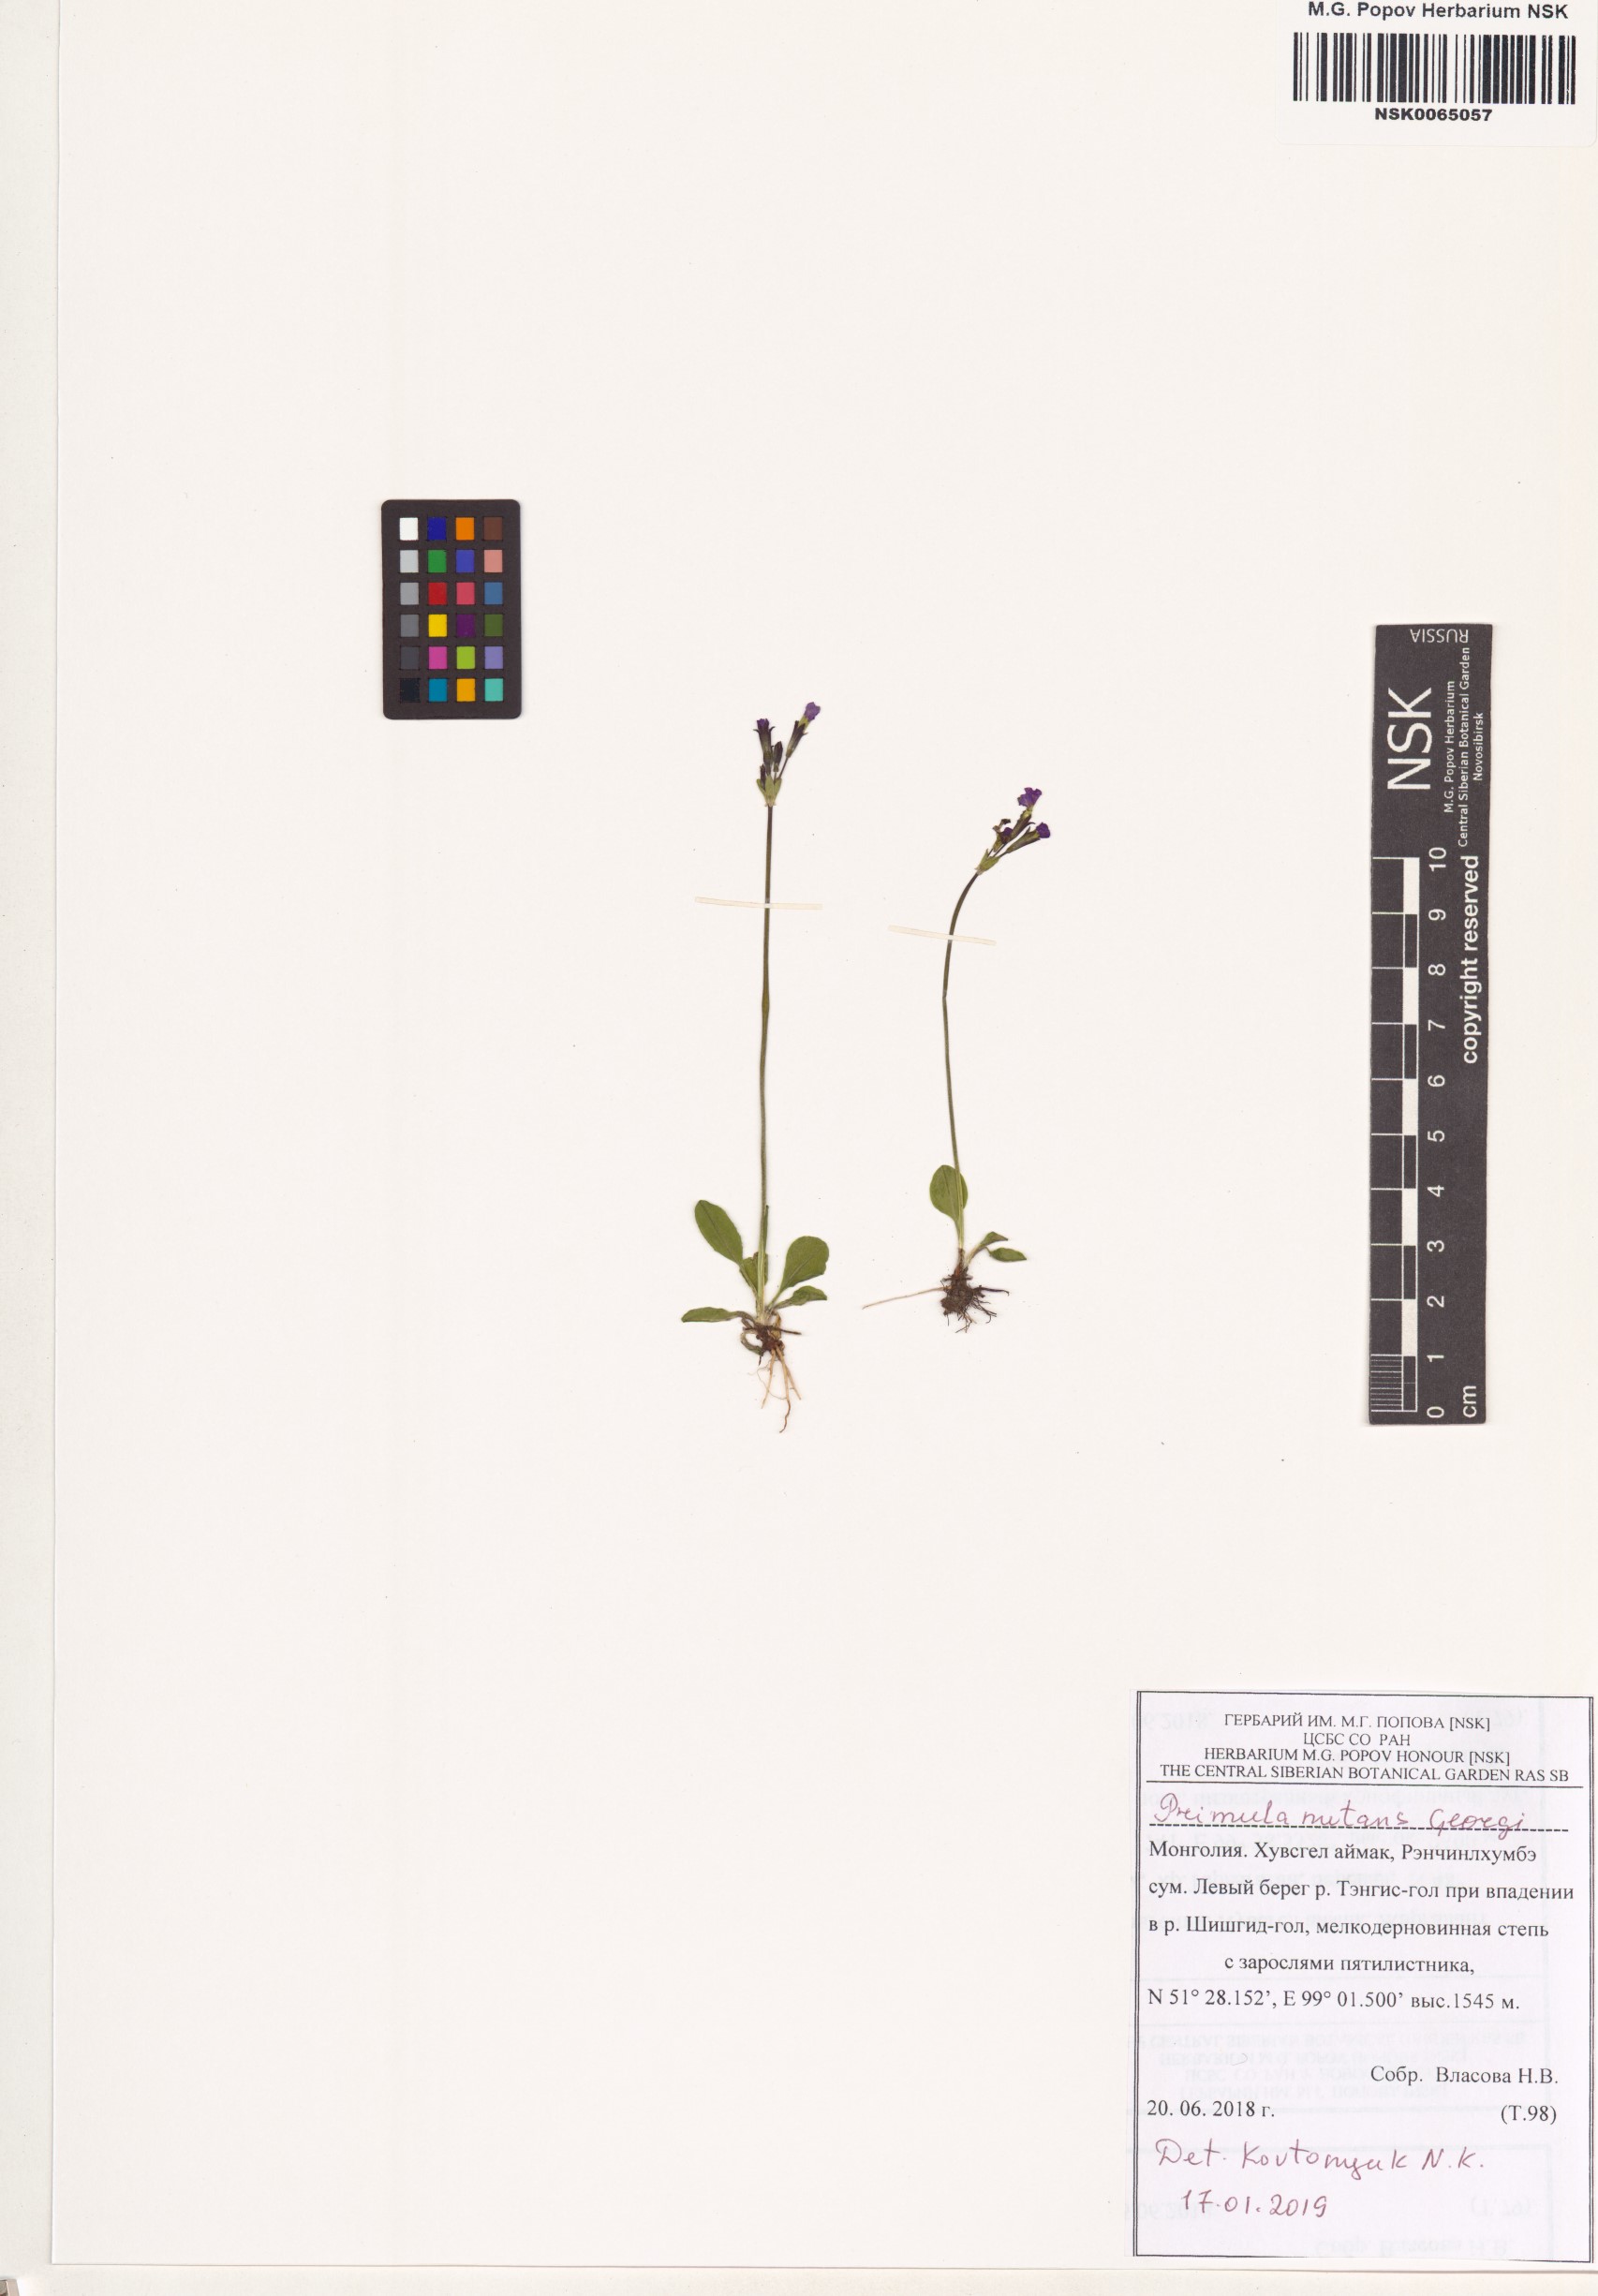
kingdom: Plantae
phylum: Tracheophyta
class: Magnoliopsida
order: Ericales
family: Primulaceae
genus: Primula
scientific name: Primula nutans
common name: Siberian primrose
